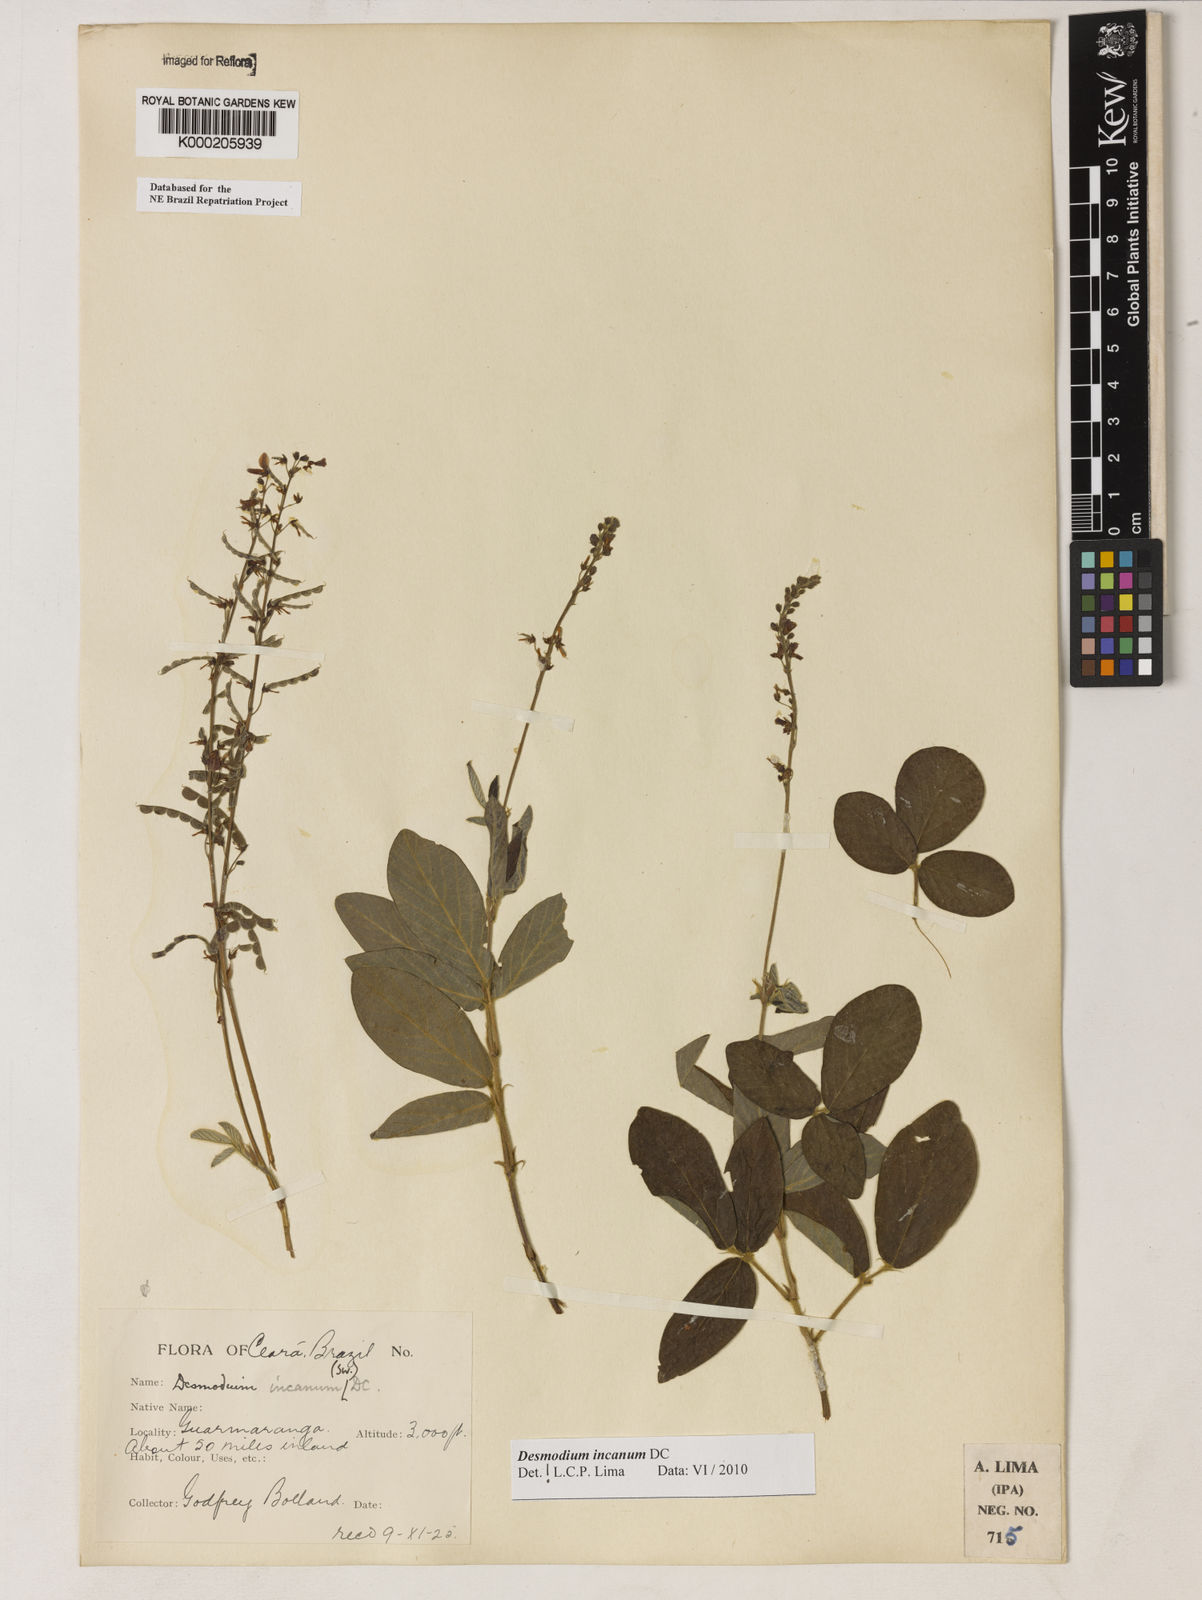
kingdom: Plantae
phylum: Tracheophyta
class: Magnoliopsida
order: Fabales
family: Fabaceae
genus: Desmodium
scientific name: Desmodium incanum
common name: Tickclover
